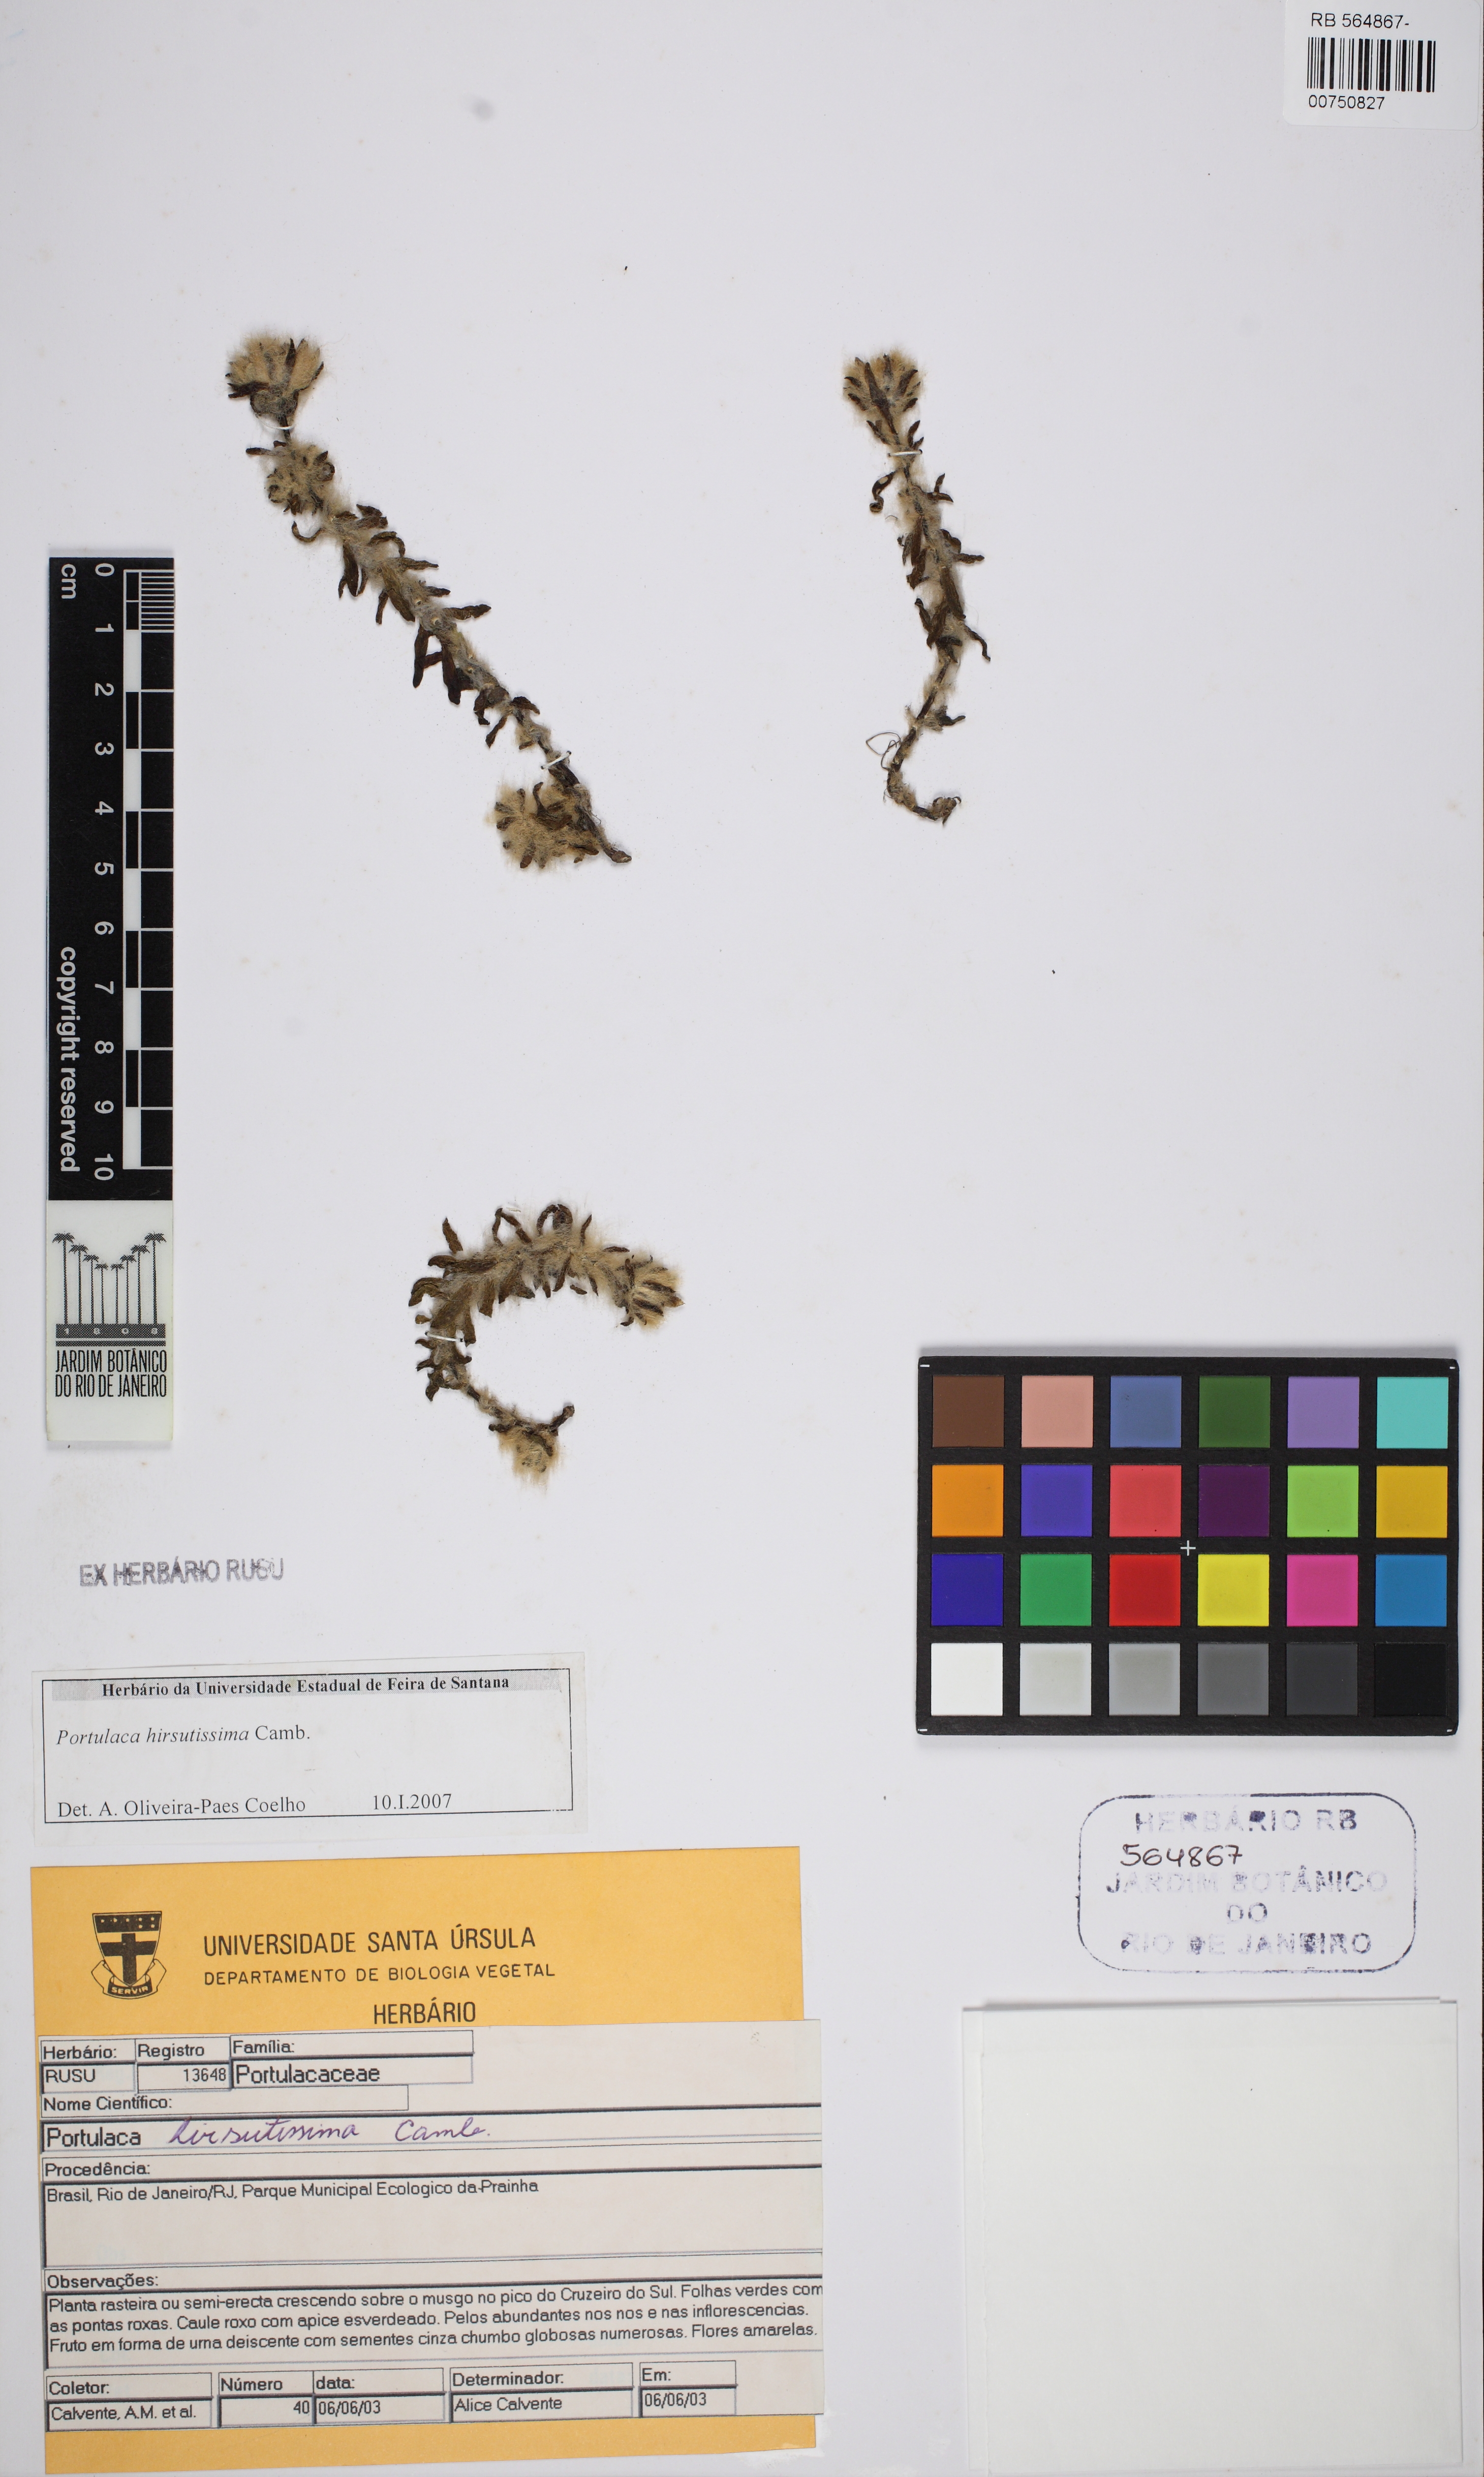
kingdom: Plantae
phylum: Tracheophyta
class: Magnoliopsida
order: Caryophyllales
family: Portulacaceae
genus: Portulaca
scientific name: Portulaca hirsutissima
